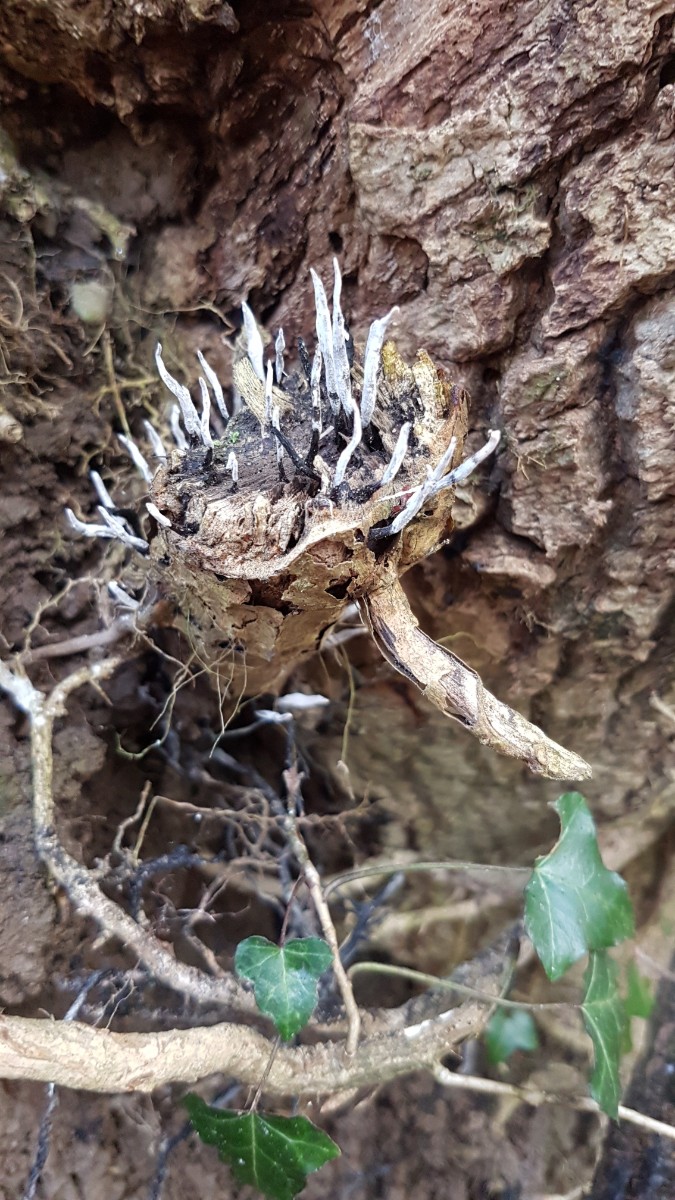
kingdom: Fungi
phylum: Ascomycota
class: Sordariomycetes
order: Xylariales
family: Xylariaceae
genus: Xylaria
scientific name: Xylaria hypoxylon
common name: grenet stødsvamp
